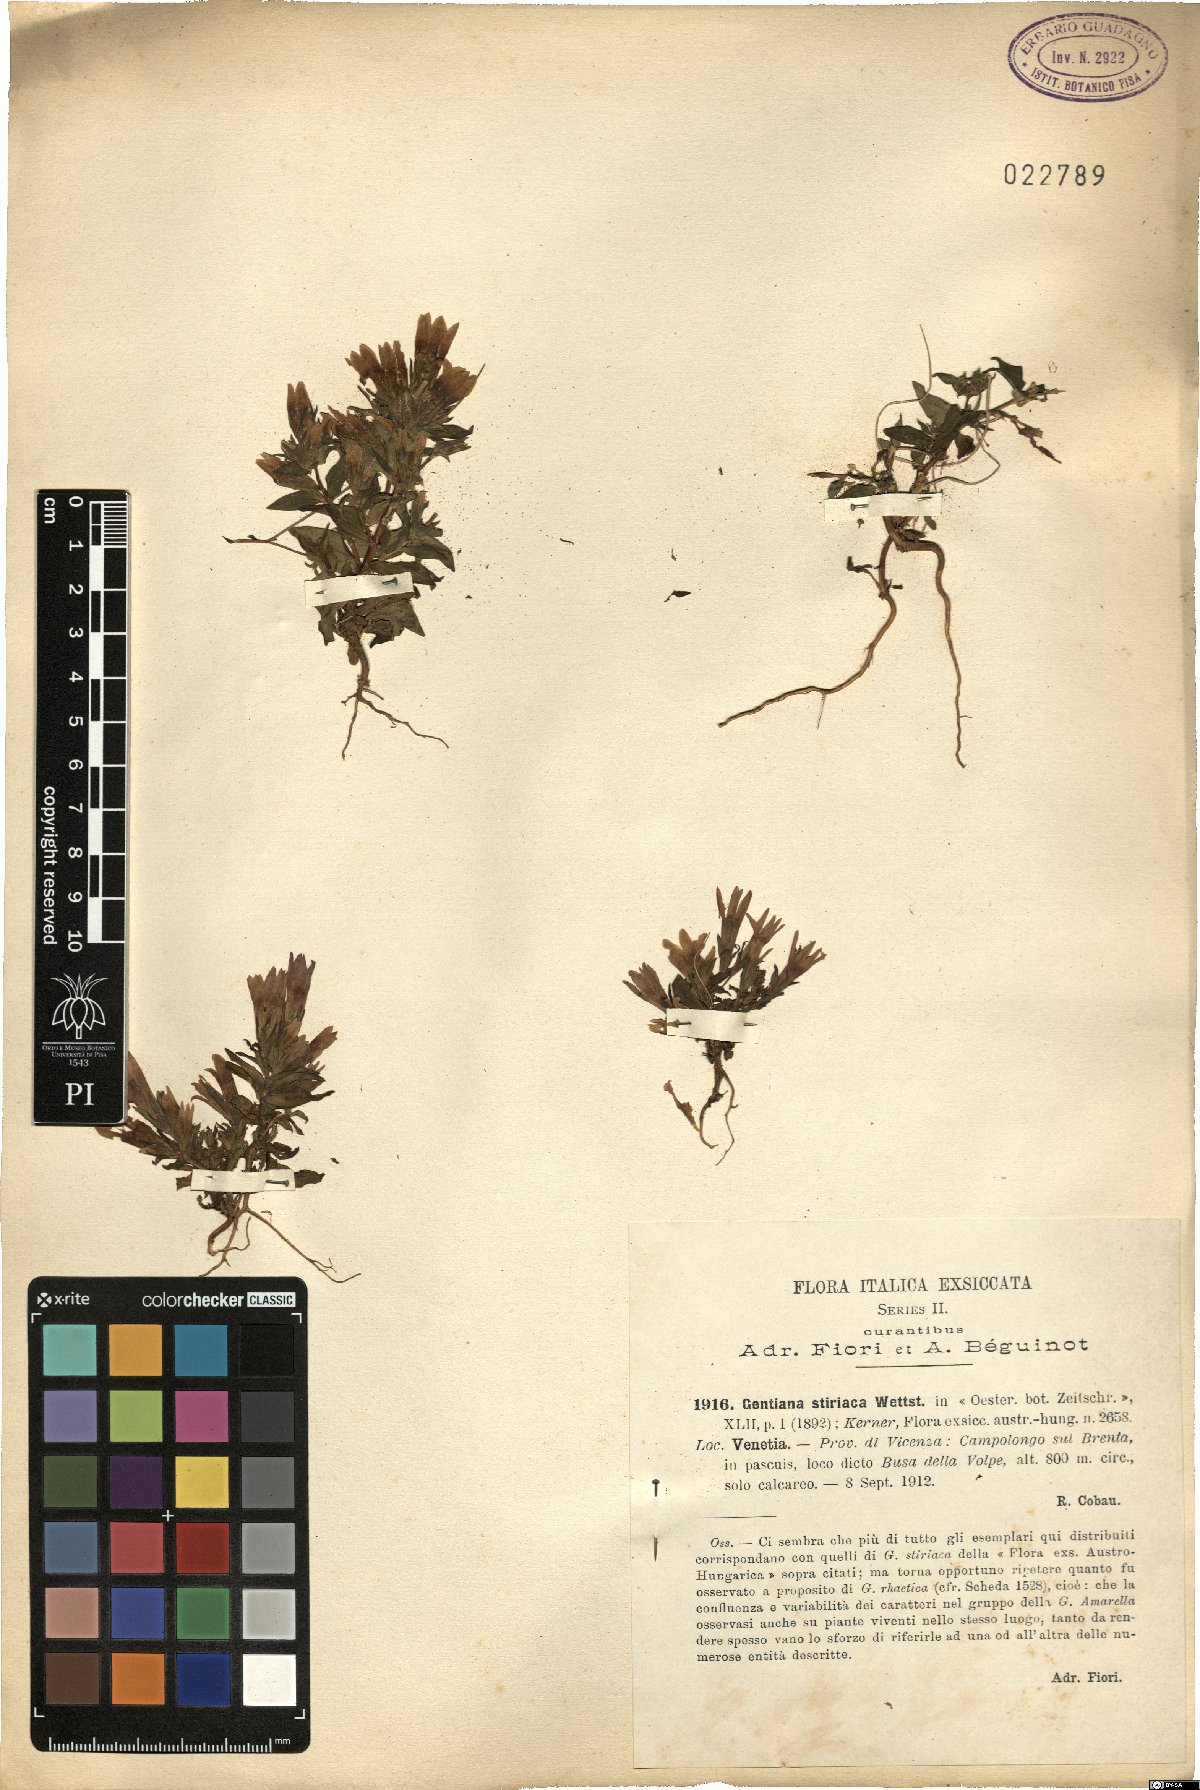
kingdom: Plantae
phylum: Tracheophyta
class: Magnoliopsida
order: Gentianales
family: Gentianaceae
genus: Gentianella
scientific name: Gentianella rhaetica
